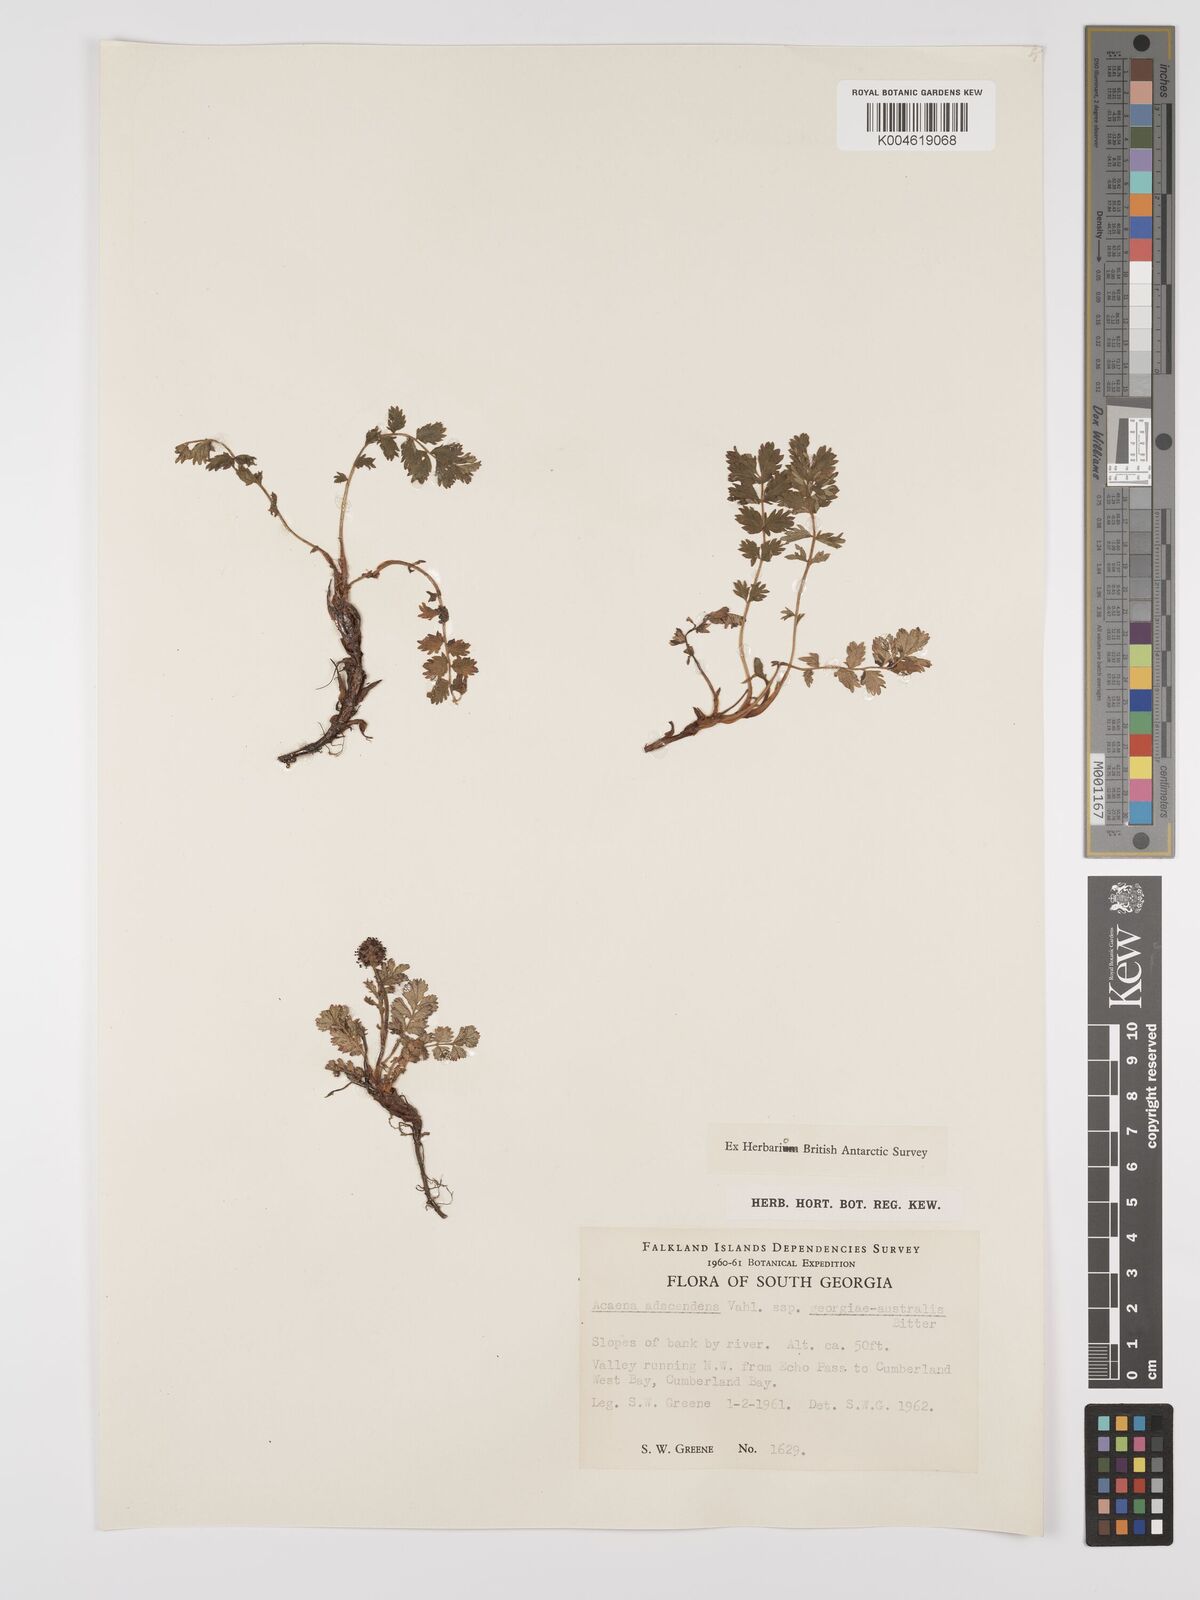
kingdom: Plantae
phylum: Tracheophyta
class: Magnoliopsida
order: Rosales
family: Rosaceae
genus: Acaena
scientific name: Acaena magellanica
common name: New zealand burr
